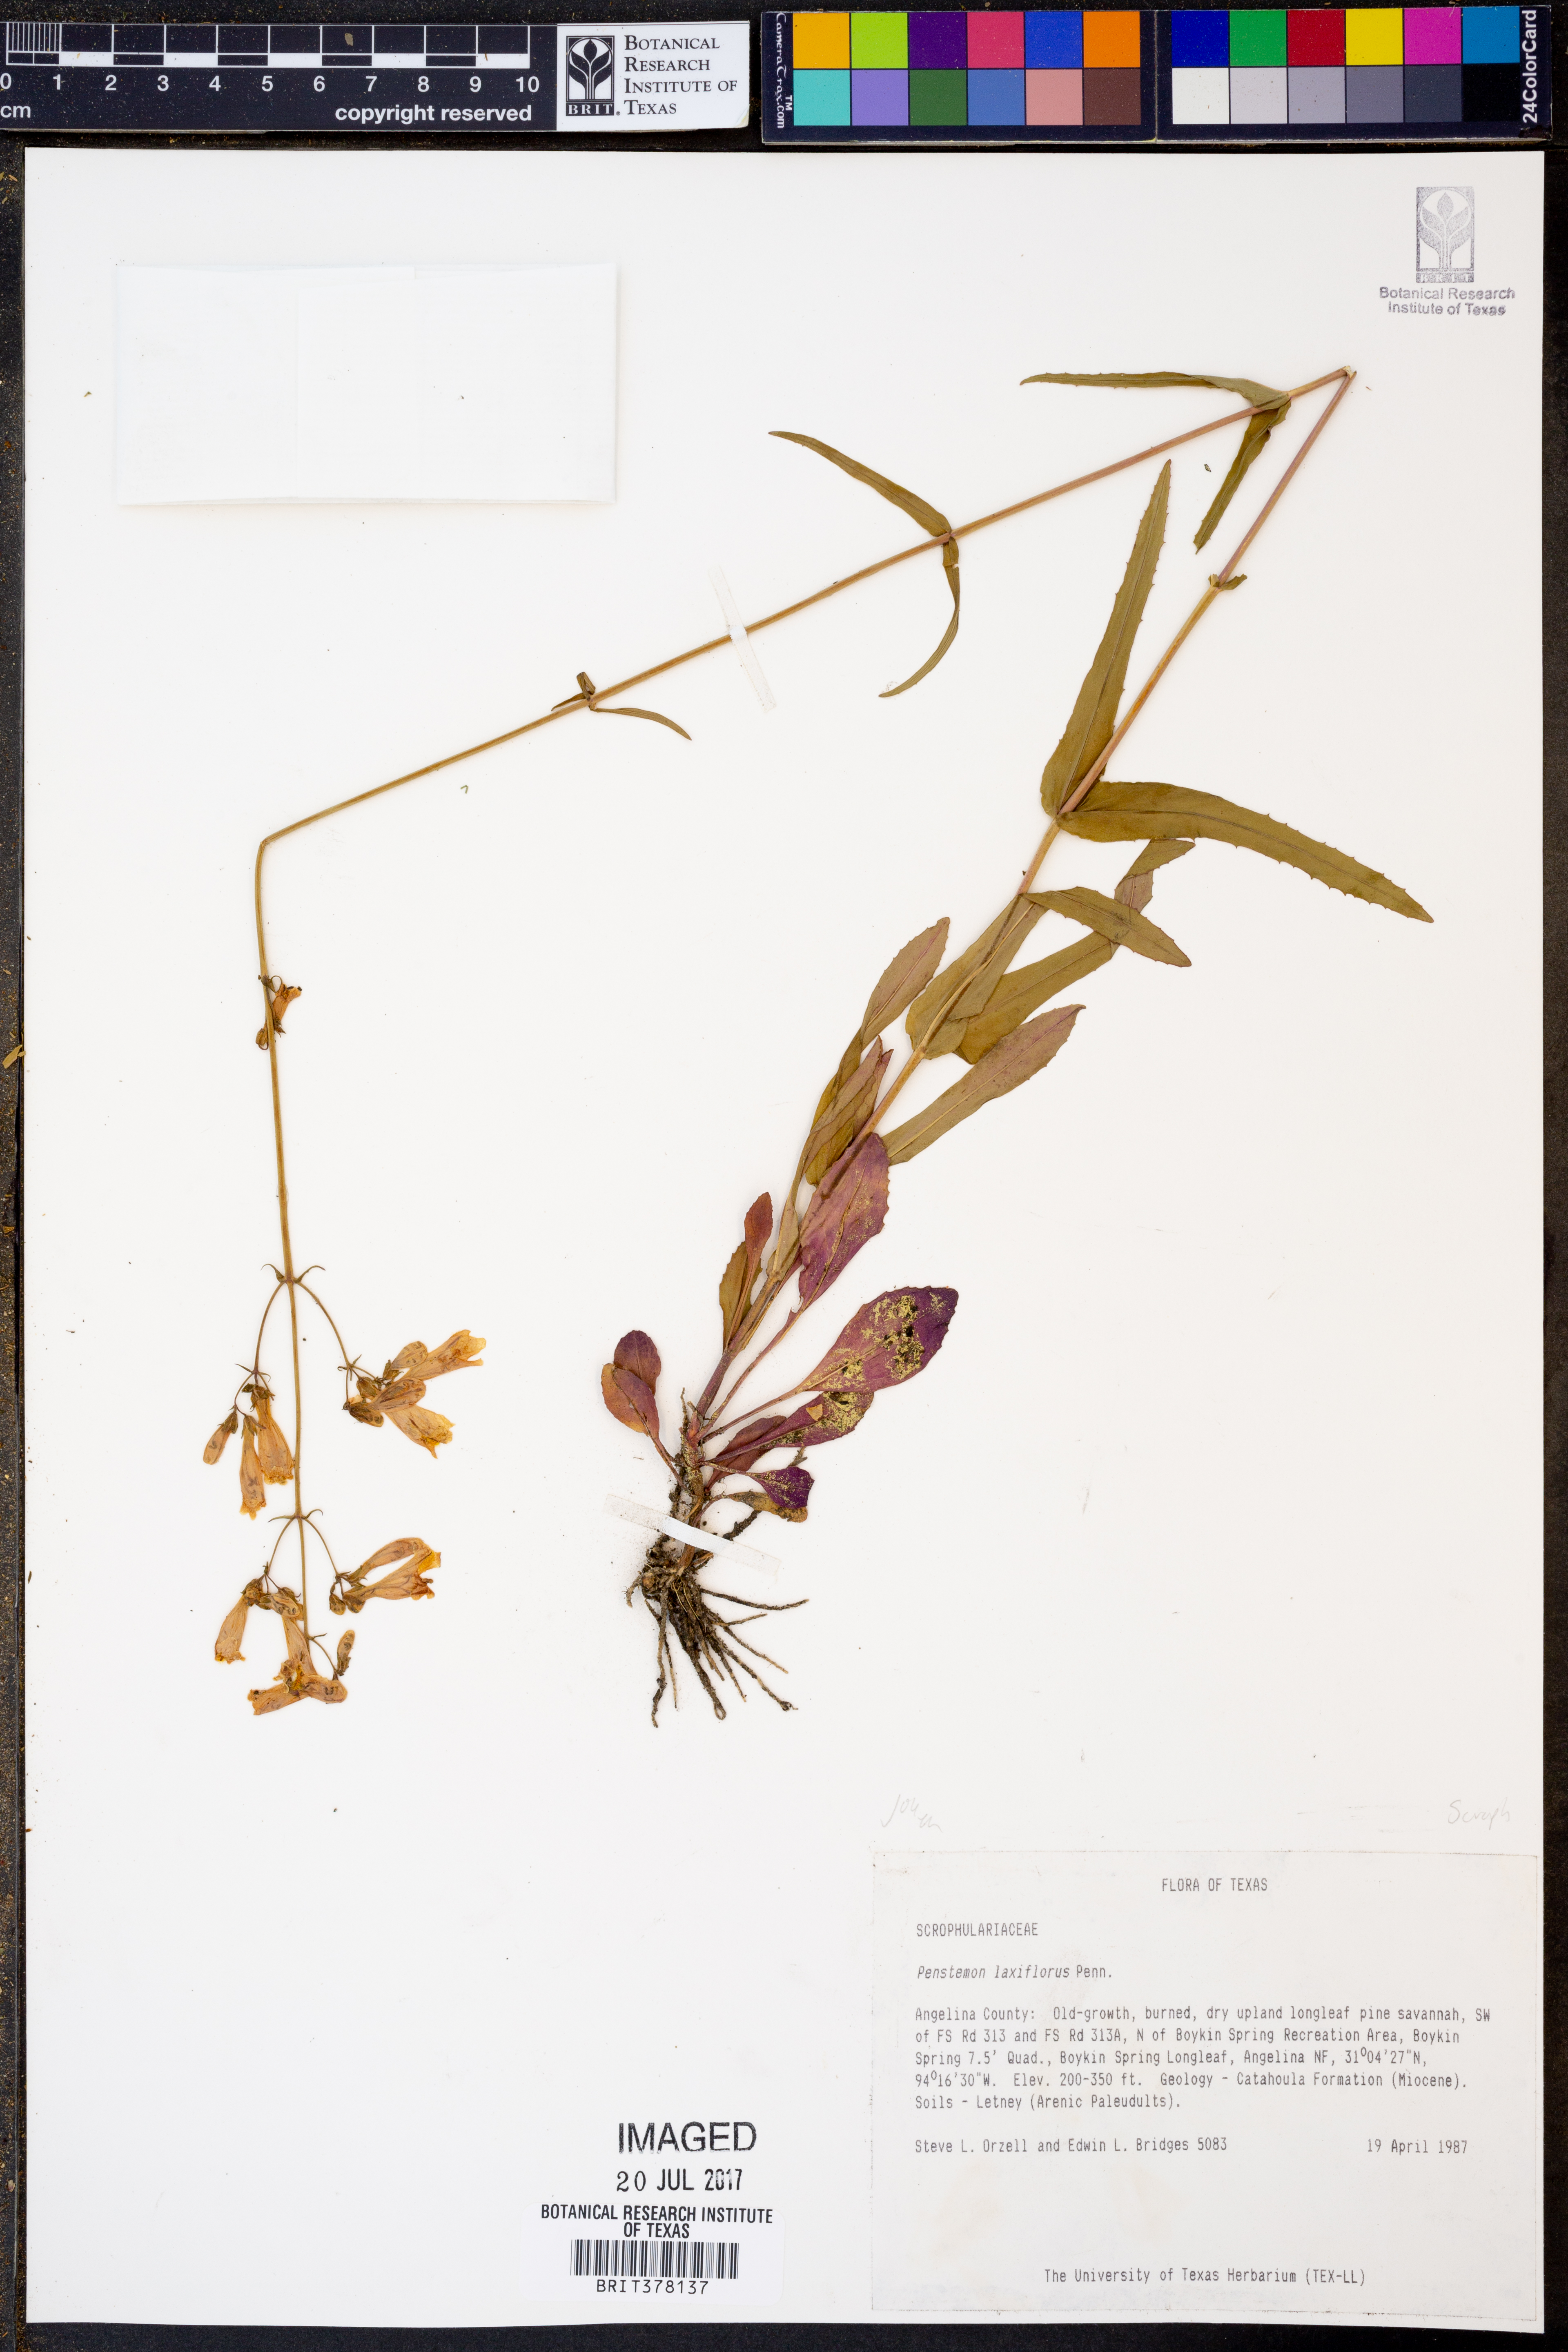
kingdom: Plantae
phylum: Tracheophyta
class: Magnoliopsida
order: Lamiales
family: Plantaginaceae
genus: Penstemon
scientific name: Penstemon laxiflorus
